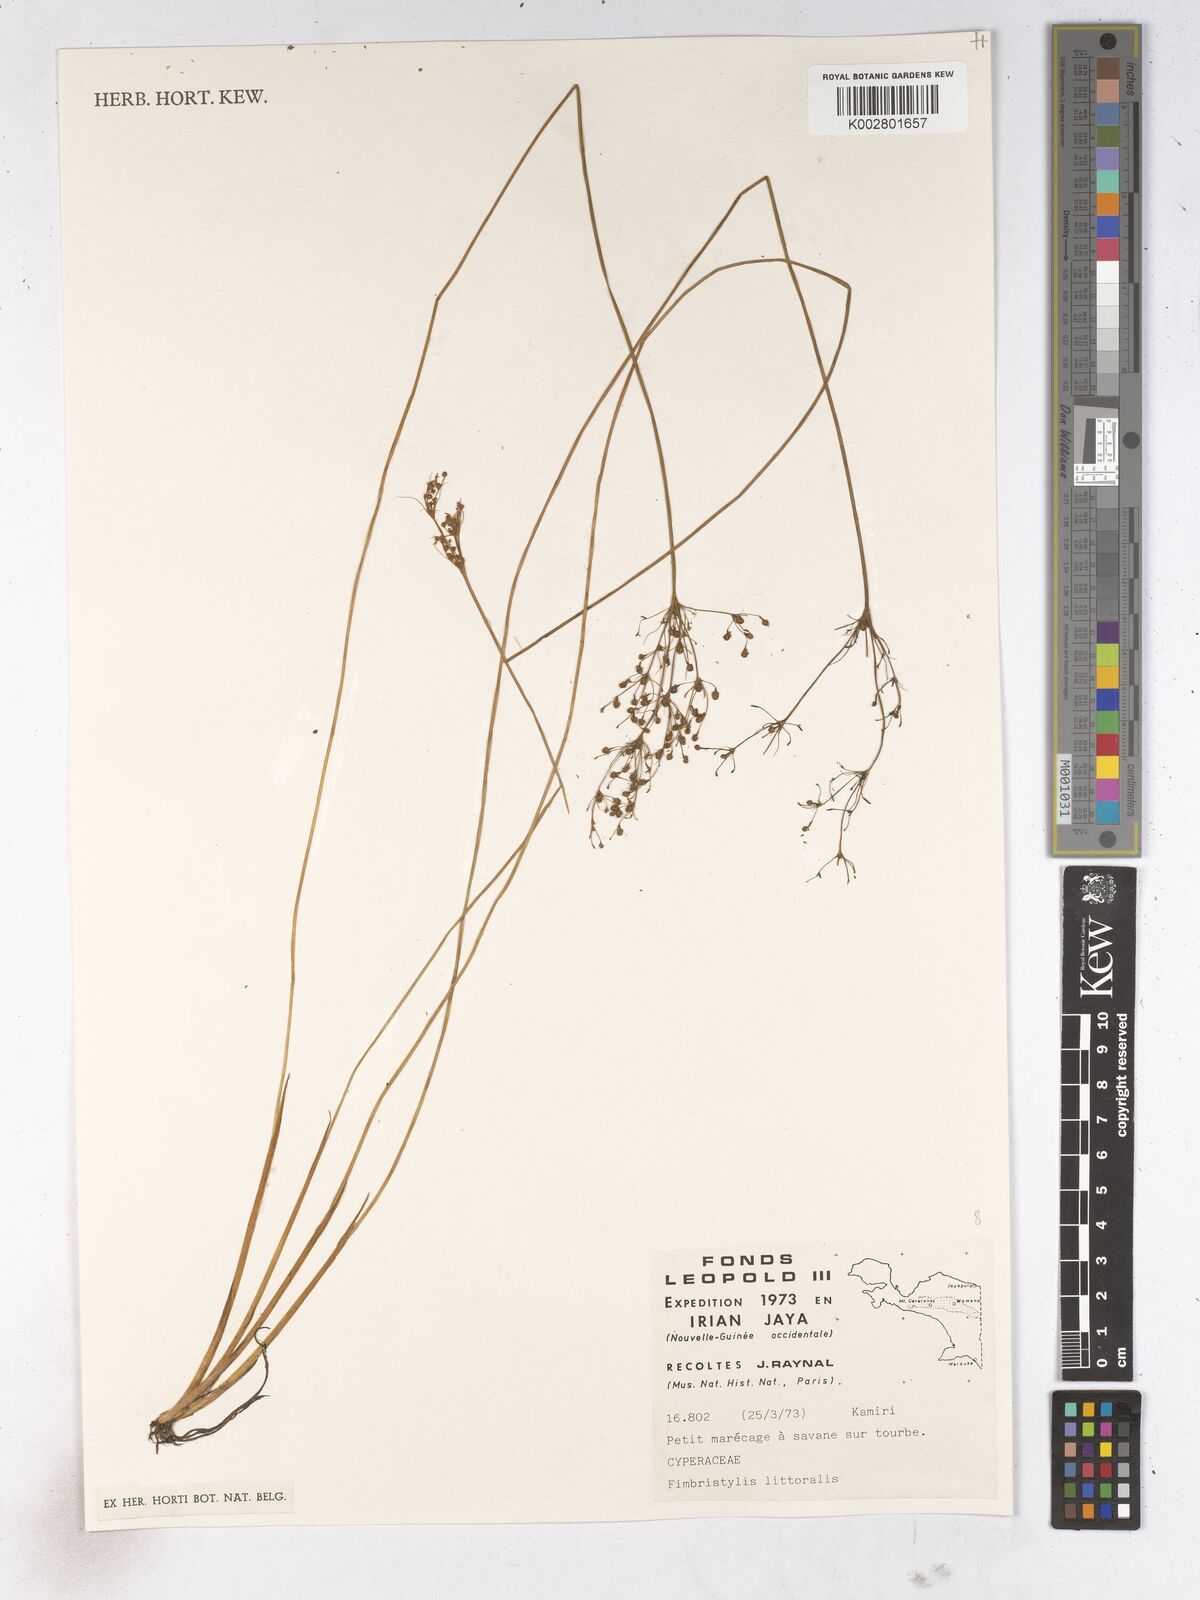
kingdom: Plantae
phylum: Tracheophyta
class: Liliopsida
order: Poales
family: Cyperaceae
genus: Fimbristylis
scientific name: Fimbristylis littoralis
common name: Fimbry
